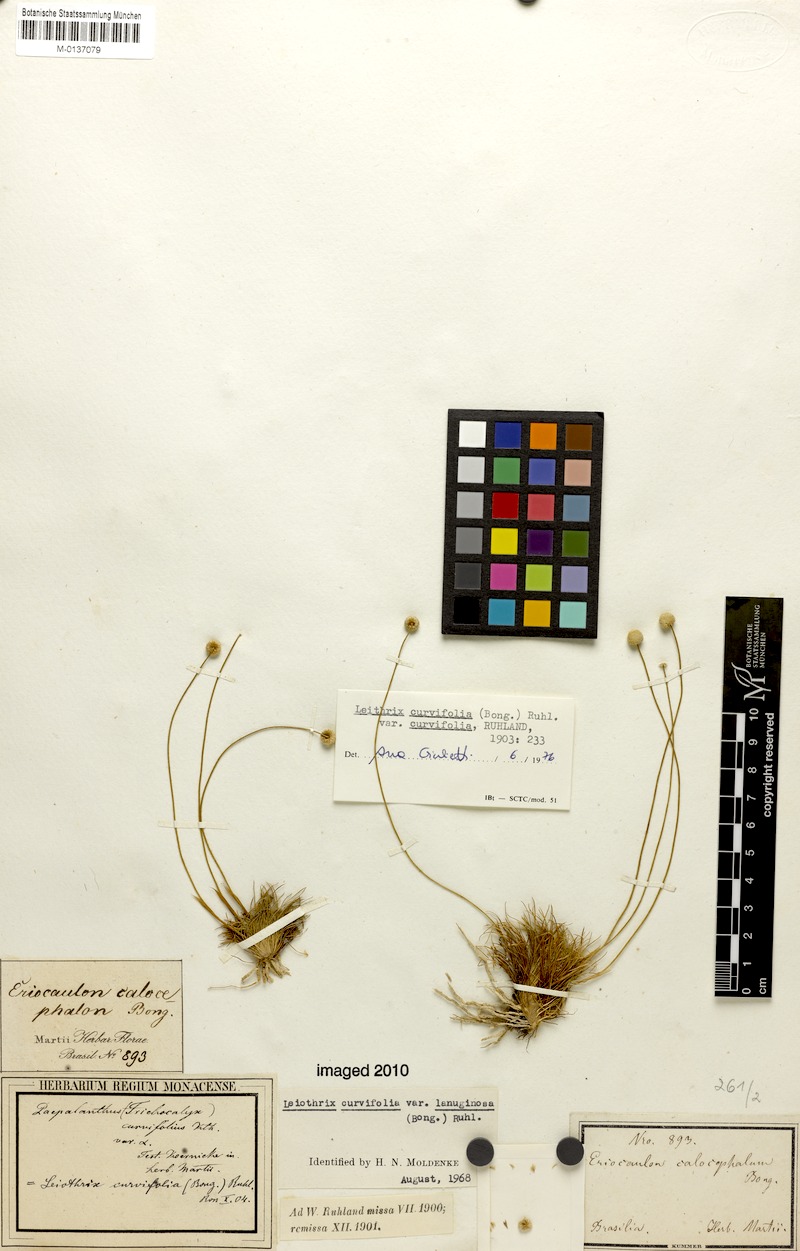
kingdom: Plantae
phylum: Tracheophyta
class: Liliopsida
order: Poales
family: Eriocaulaceae
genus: Leiothrix
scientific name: Leiothrix curvifolia
